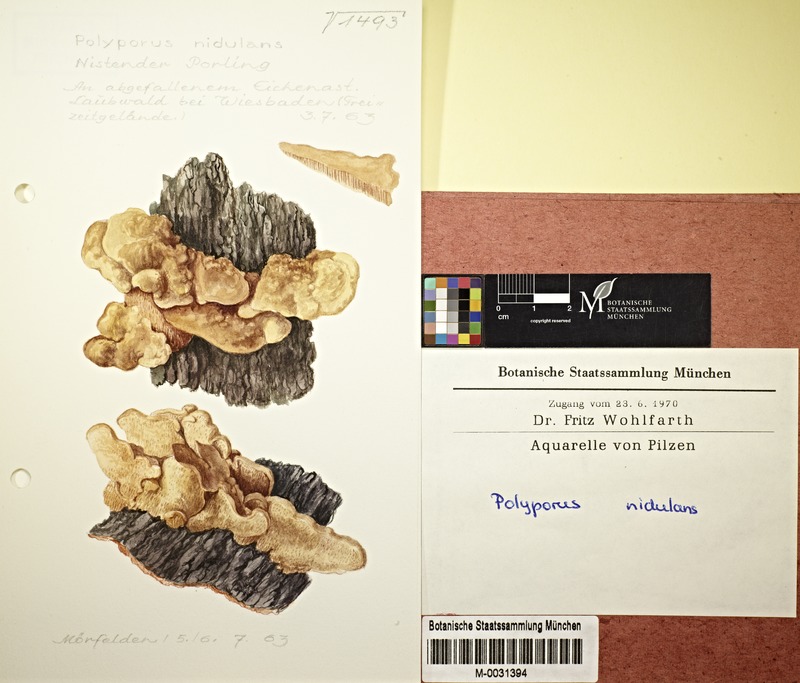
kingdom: Fungi
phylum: Basidiomycota
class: Agaricomycetes
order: Polyporales
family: Phanerochaetaceae
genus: Hapalopilus
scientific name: Hapalopilus rutilans
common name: Tender nesting polypore
